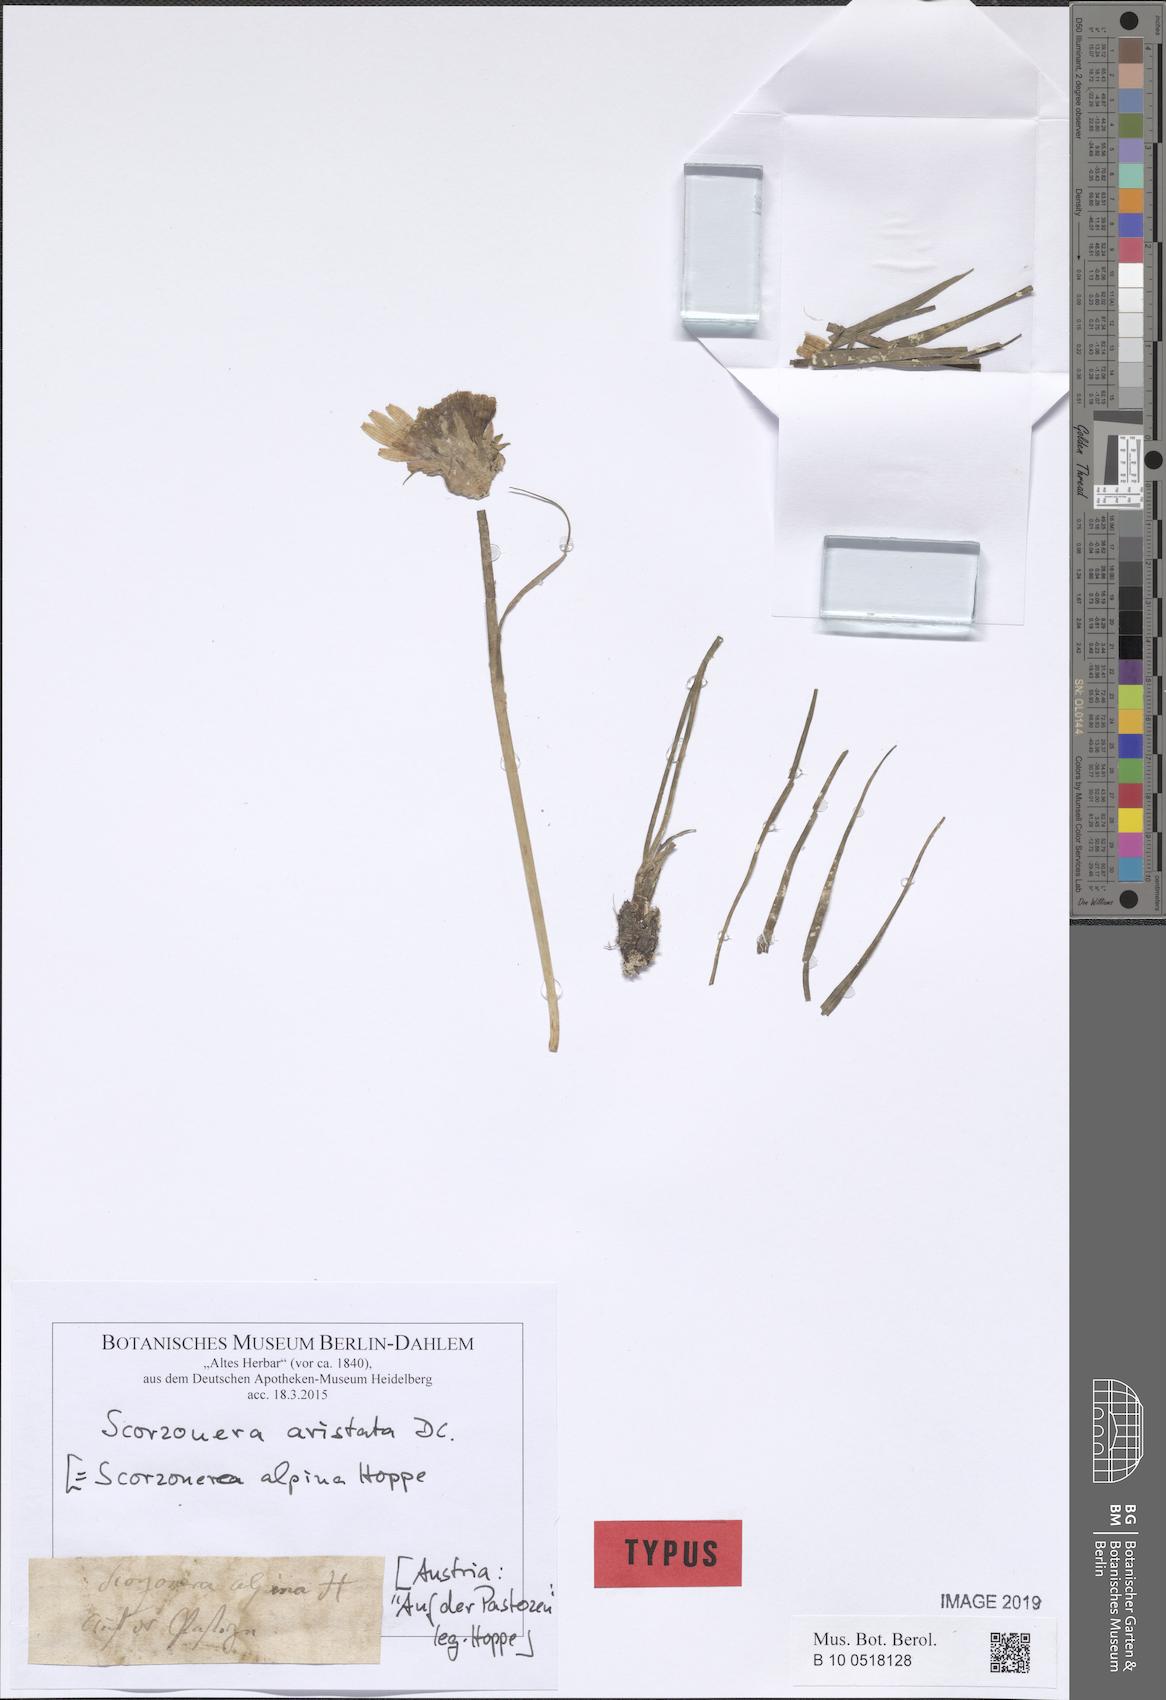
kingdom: Plantae
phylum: Tracheophyta
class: Magnoliopsida
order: Asterales
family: Asteraceae
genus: Scorzonera
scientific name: Scorzonera aristata
